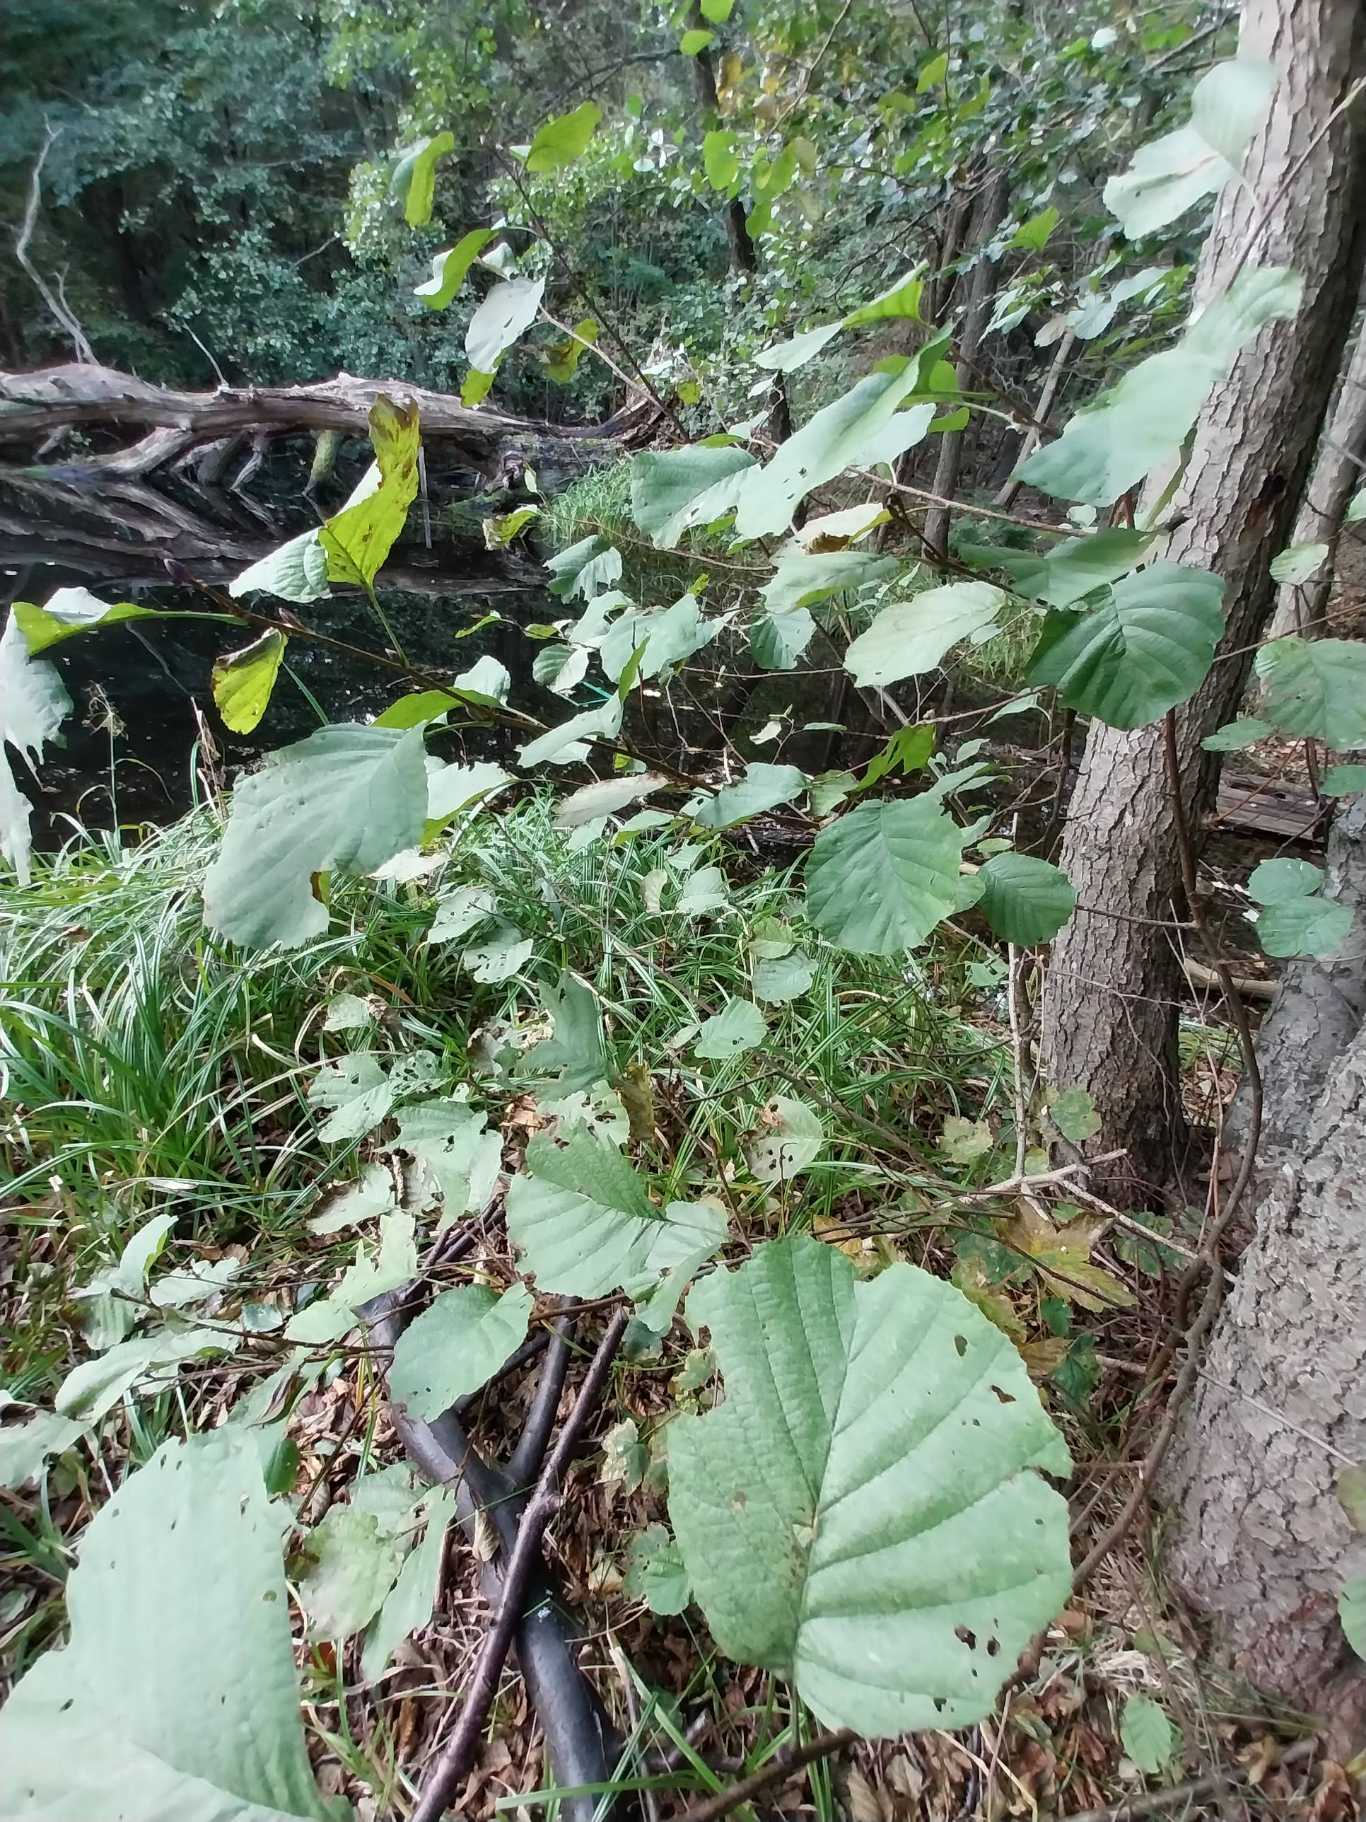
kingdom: Plantae
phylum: Tracheophyta
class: Magnoliopsida
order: Fagales
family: Betulaceae
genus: Alnus
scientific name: Alnus glutinosa
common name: Rød-el
